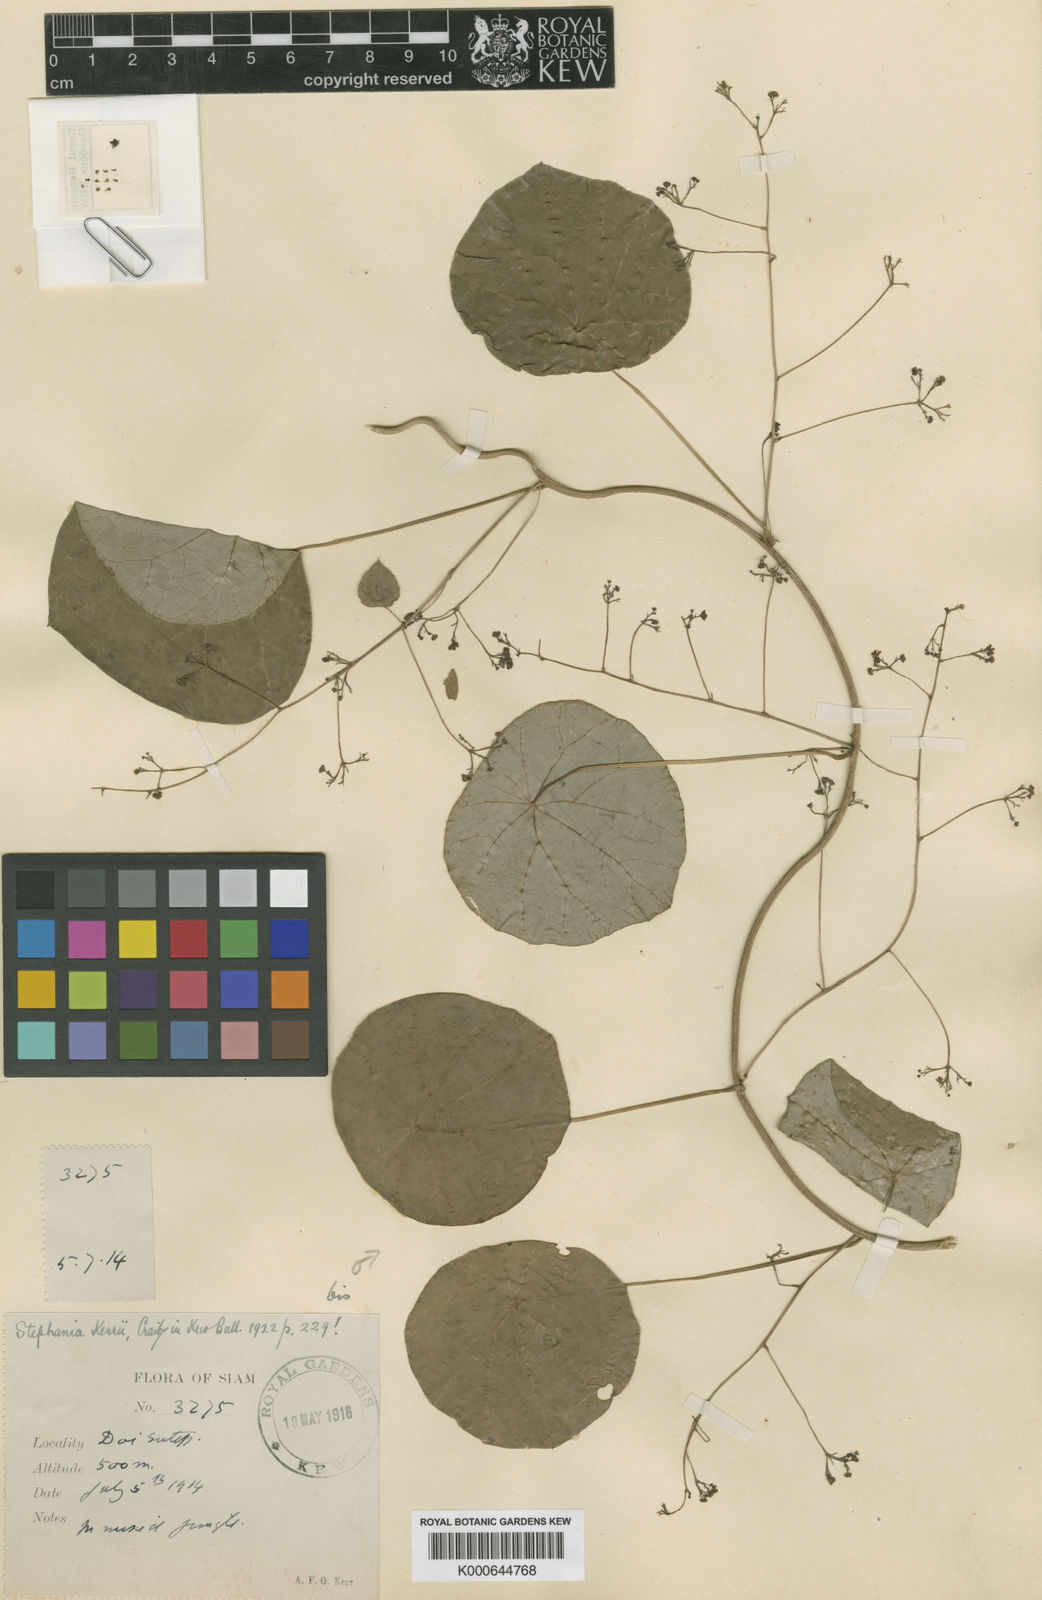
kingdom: Plantae
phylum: Tracheophyta
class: Magnoliopsida
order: Ranunculales
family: Menispermaceae
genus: Stephania
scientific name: Stephania oblata
